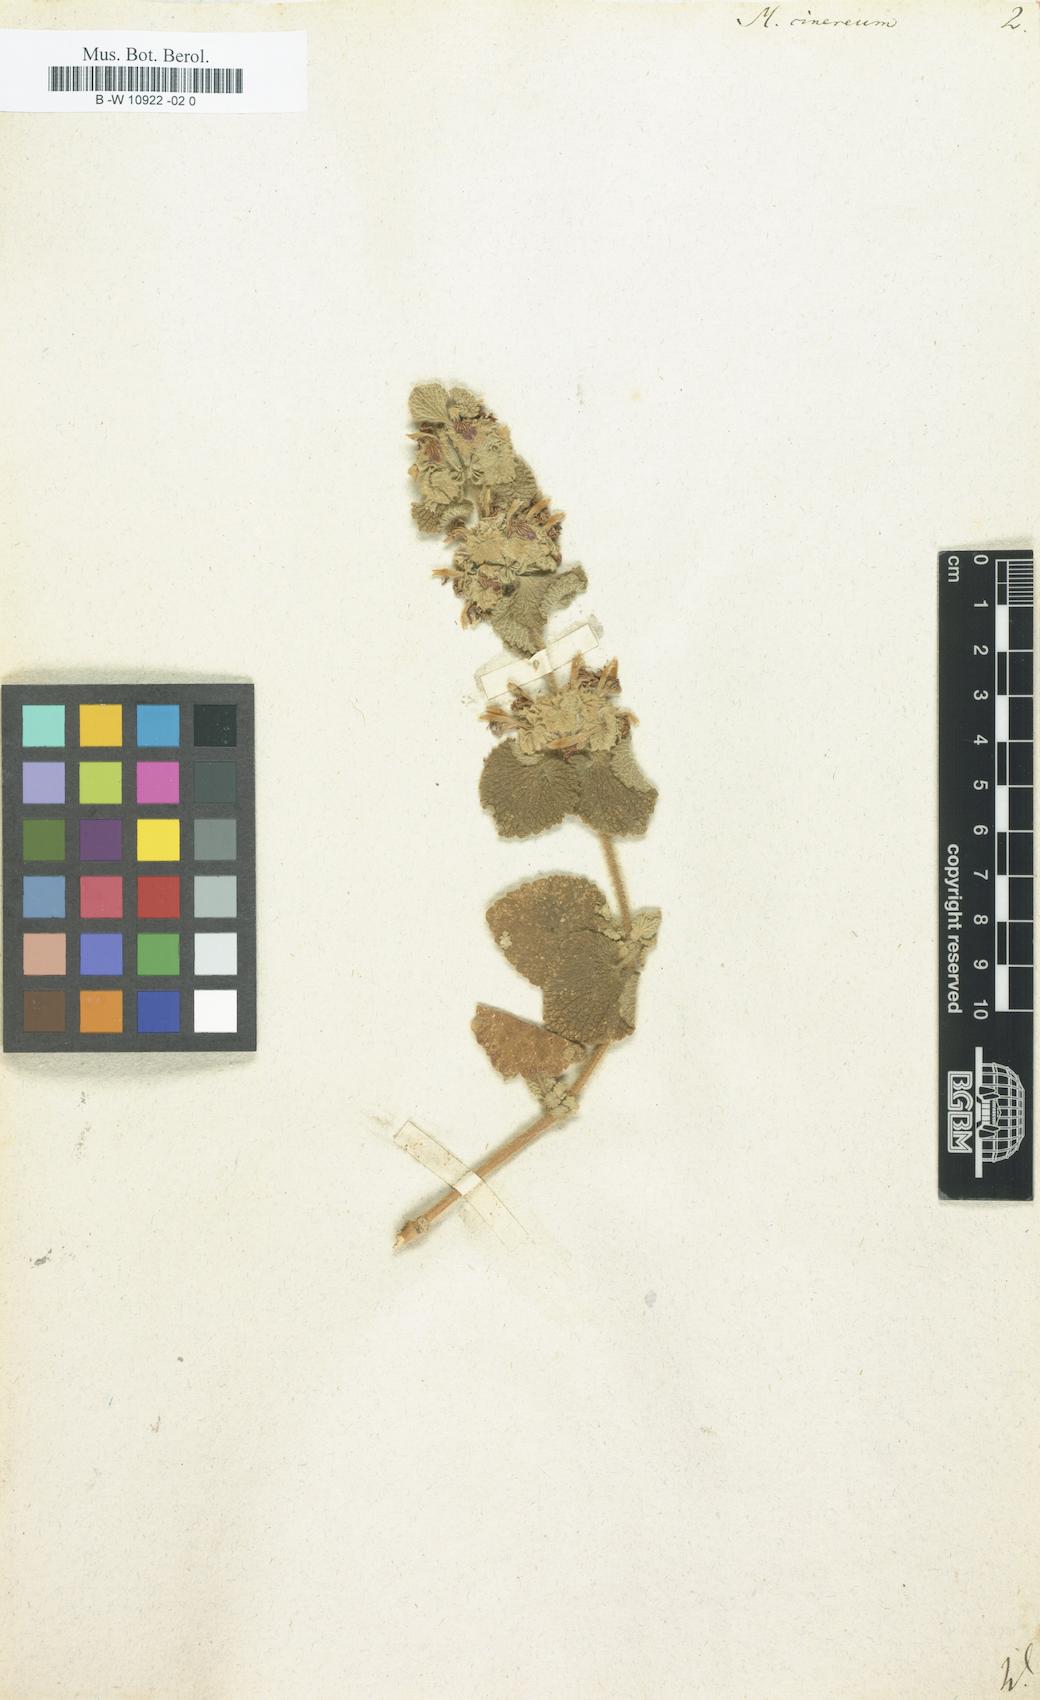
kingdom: Plantae
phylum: Tracheophyta
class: Magnoliopsida
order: Lamiales
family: Lamiaceae
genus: Marrubium
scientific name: Marrubium cinereum
